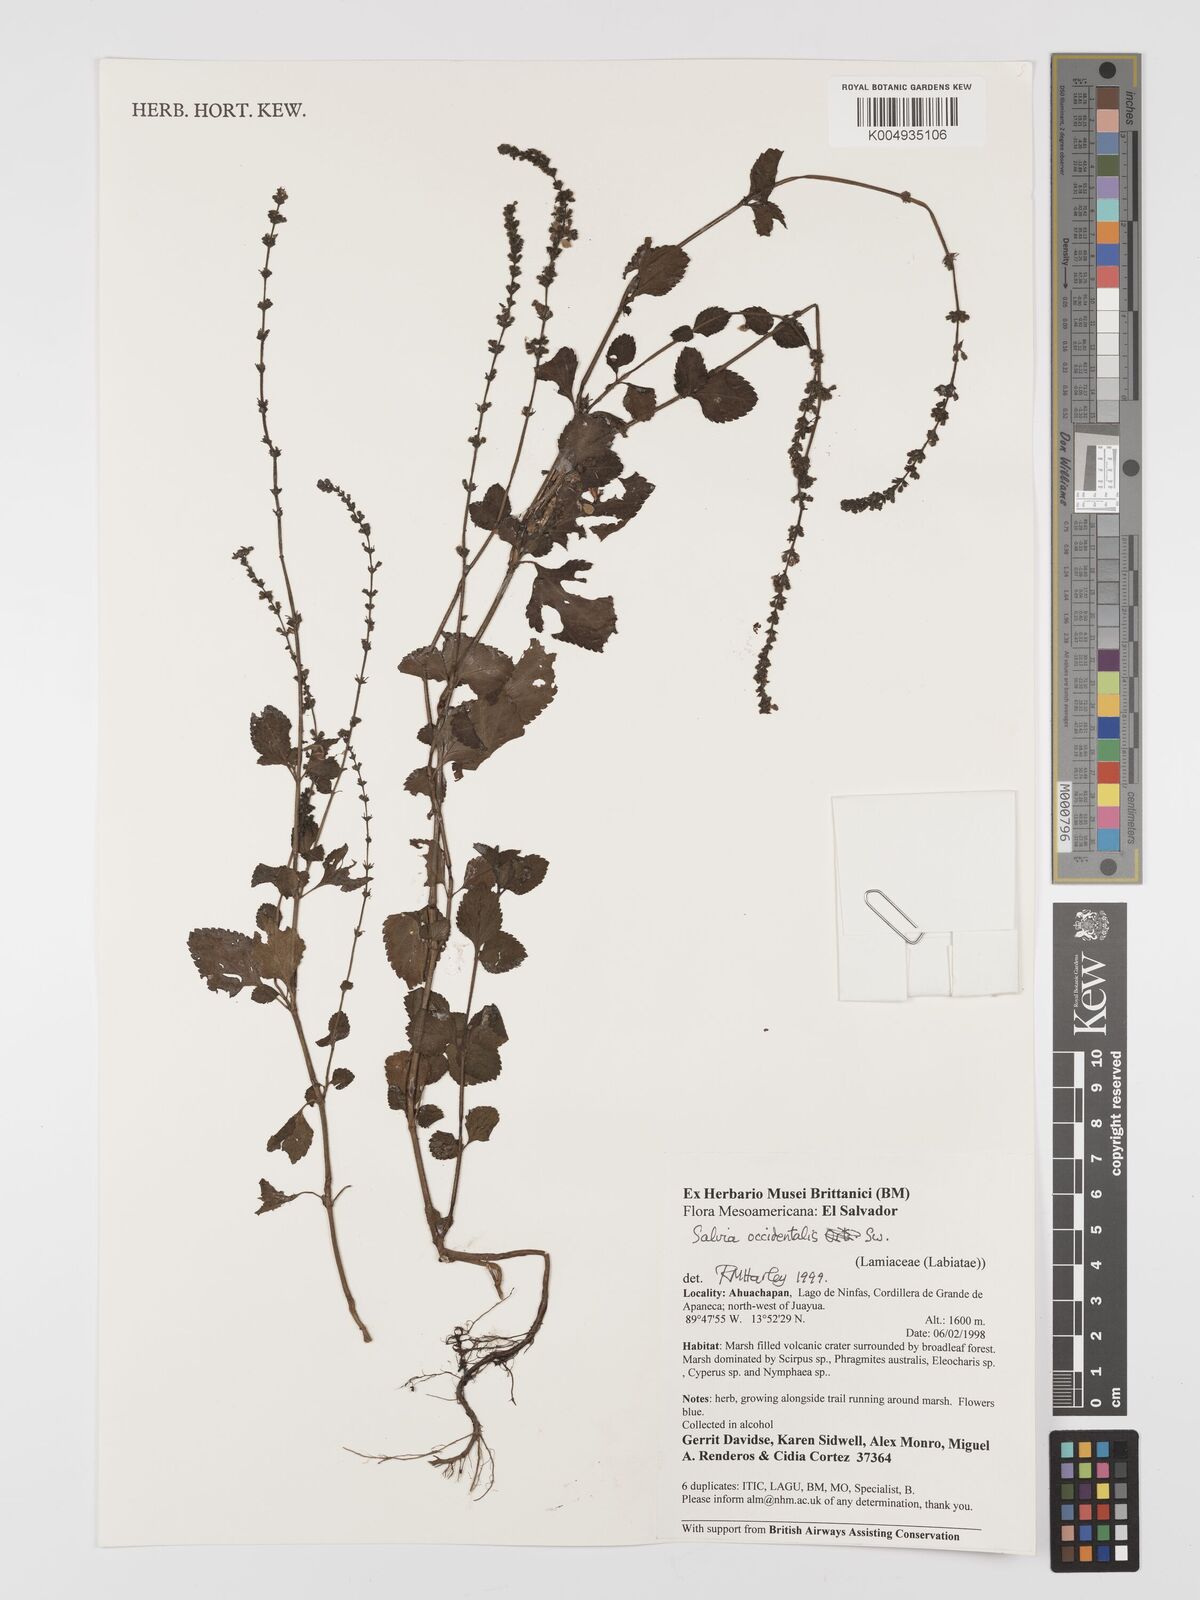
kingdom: Plantae
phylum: Tracheophyta
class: Magnoliopsida
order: Lamiales
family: Lamiaceae
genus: Salvia
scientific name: Salvia occidentalis
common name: West indian sage
